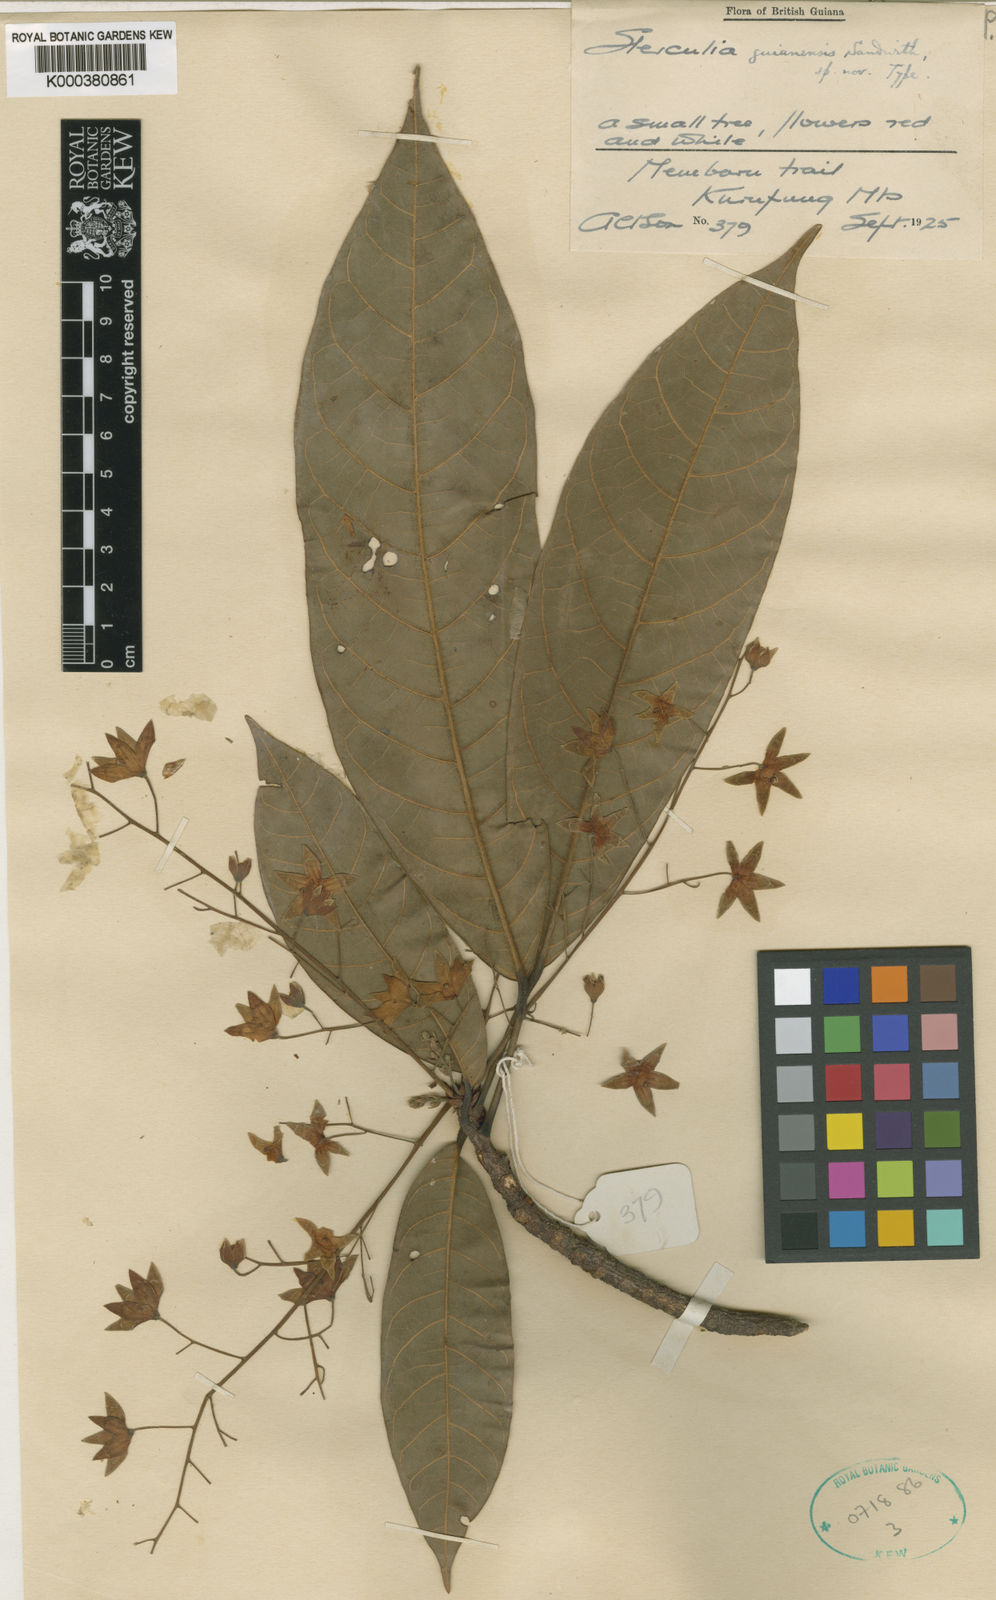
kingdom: Plantae
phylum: Tracheophyta
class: Magnoliopsida
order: Malvales
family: Malvaceae
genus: Sterculia
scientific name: Sterculia guianensis
